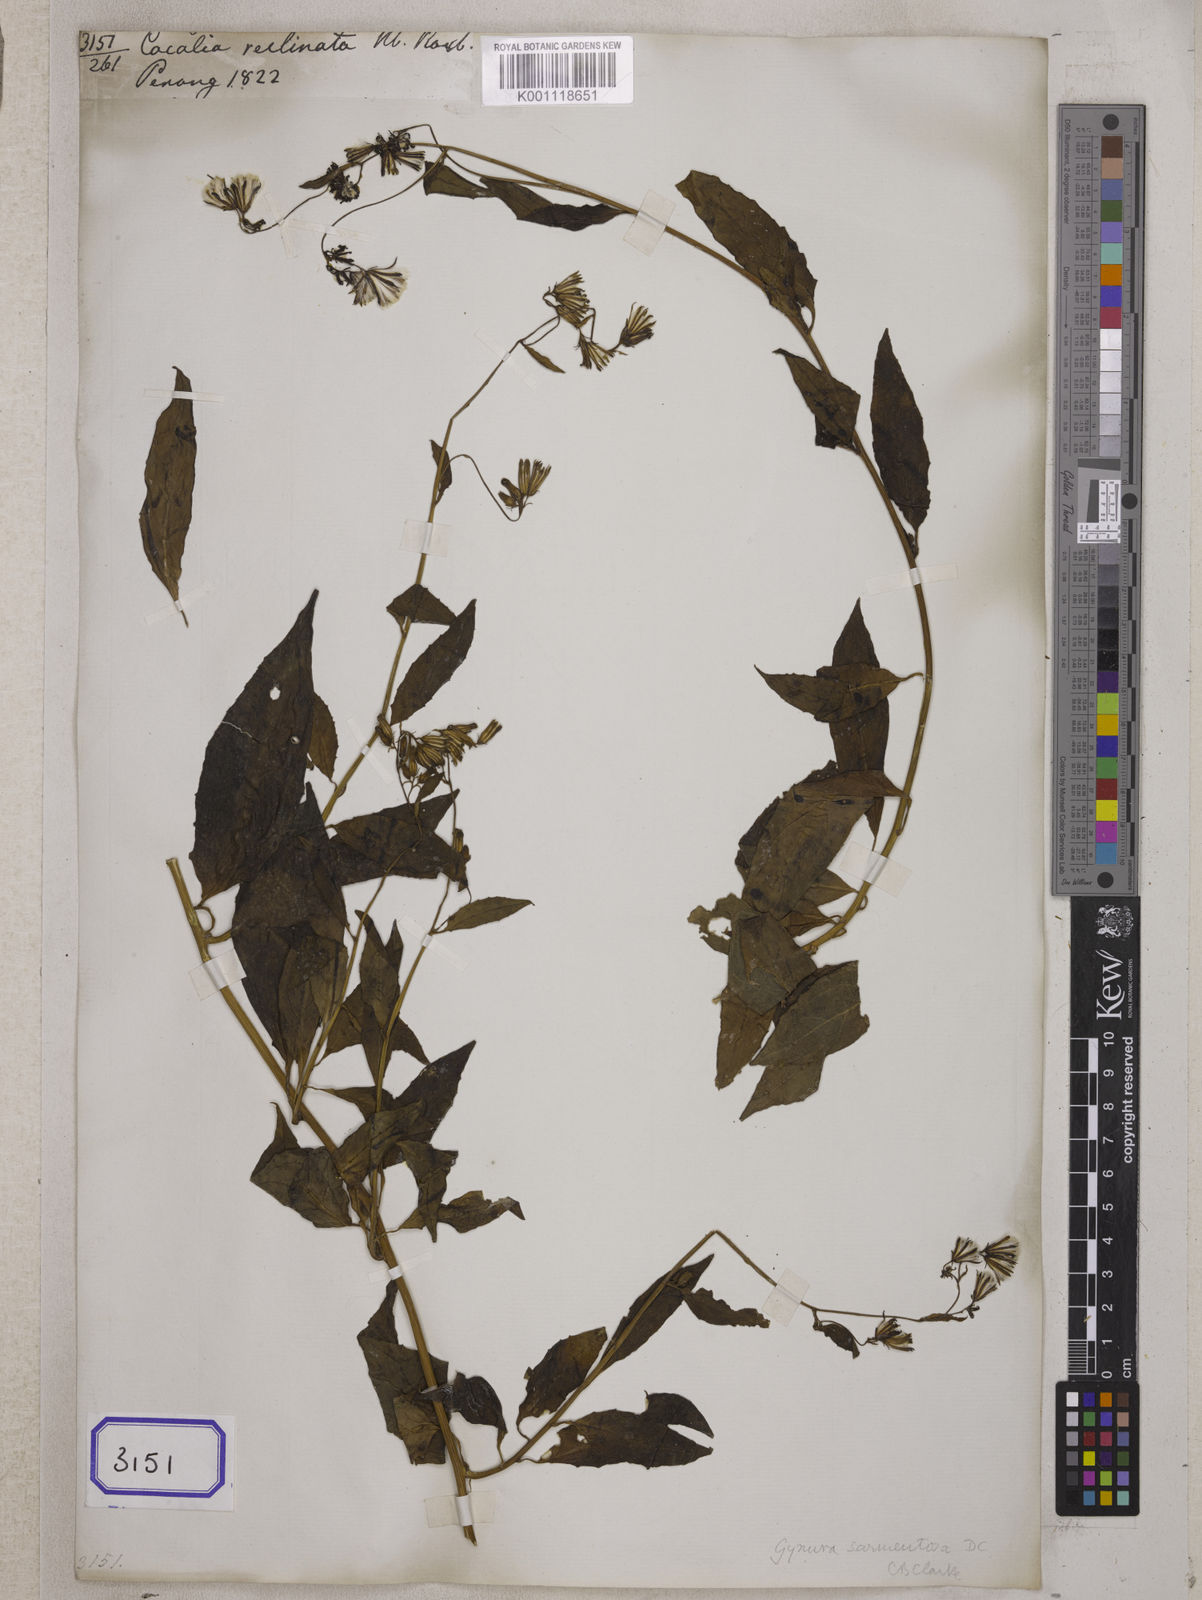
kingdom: Plantae
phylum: Tracheophyta
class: Magnoliopsida
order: Asterales
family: Asteraceae
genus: Gynura
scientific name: Gynura procumbens
